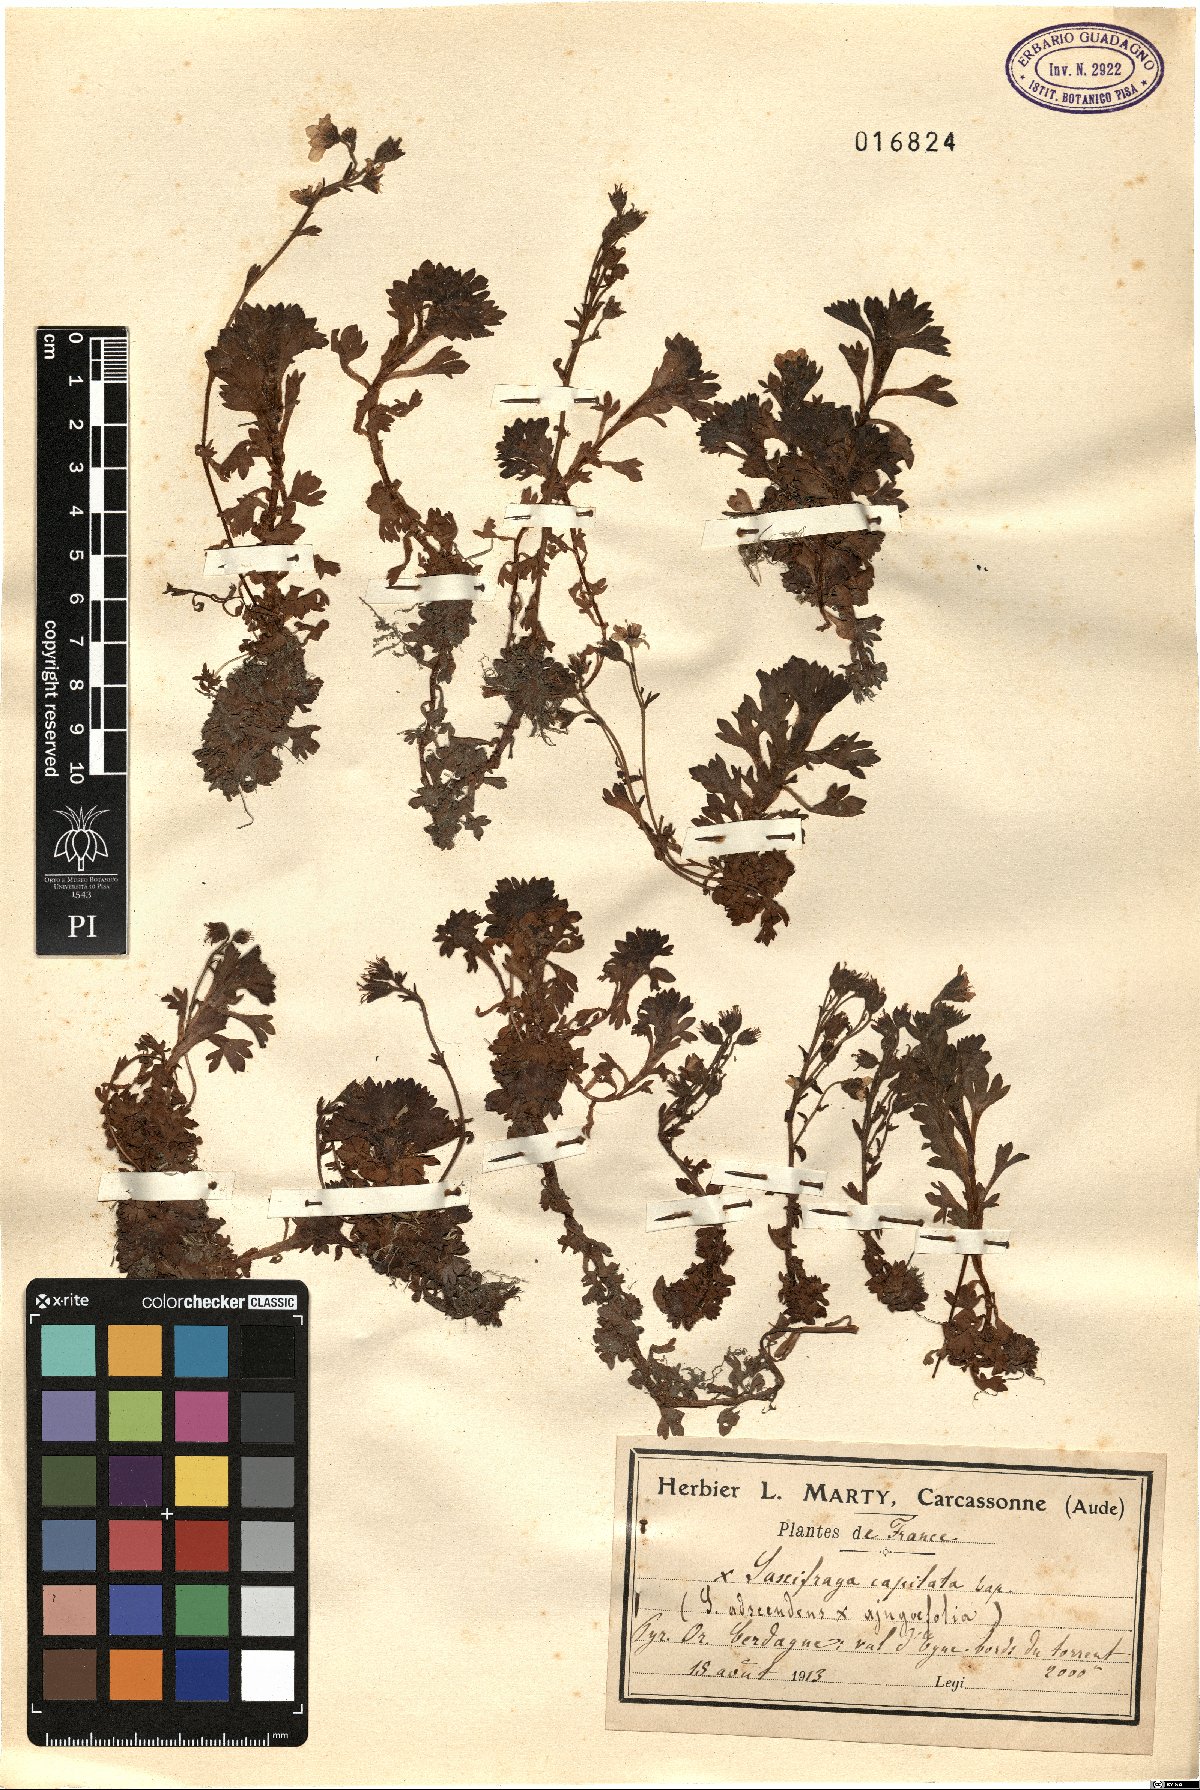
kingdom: Plantae
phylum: Tracheophyta
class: Magnoliopsida
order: Saxifragales
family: Saxifragaceae
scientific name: Saxifragaceae
